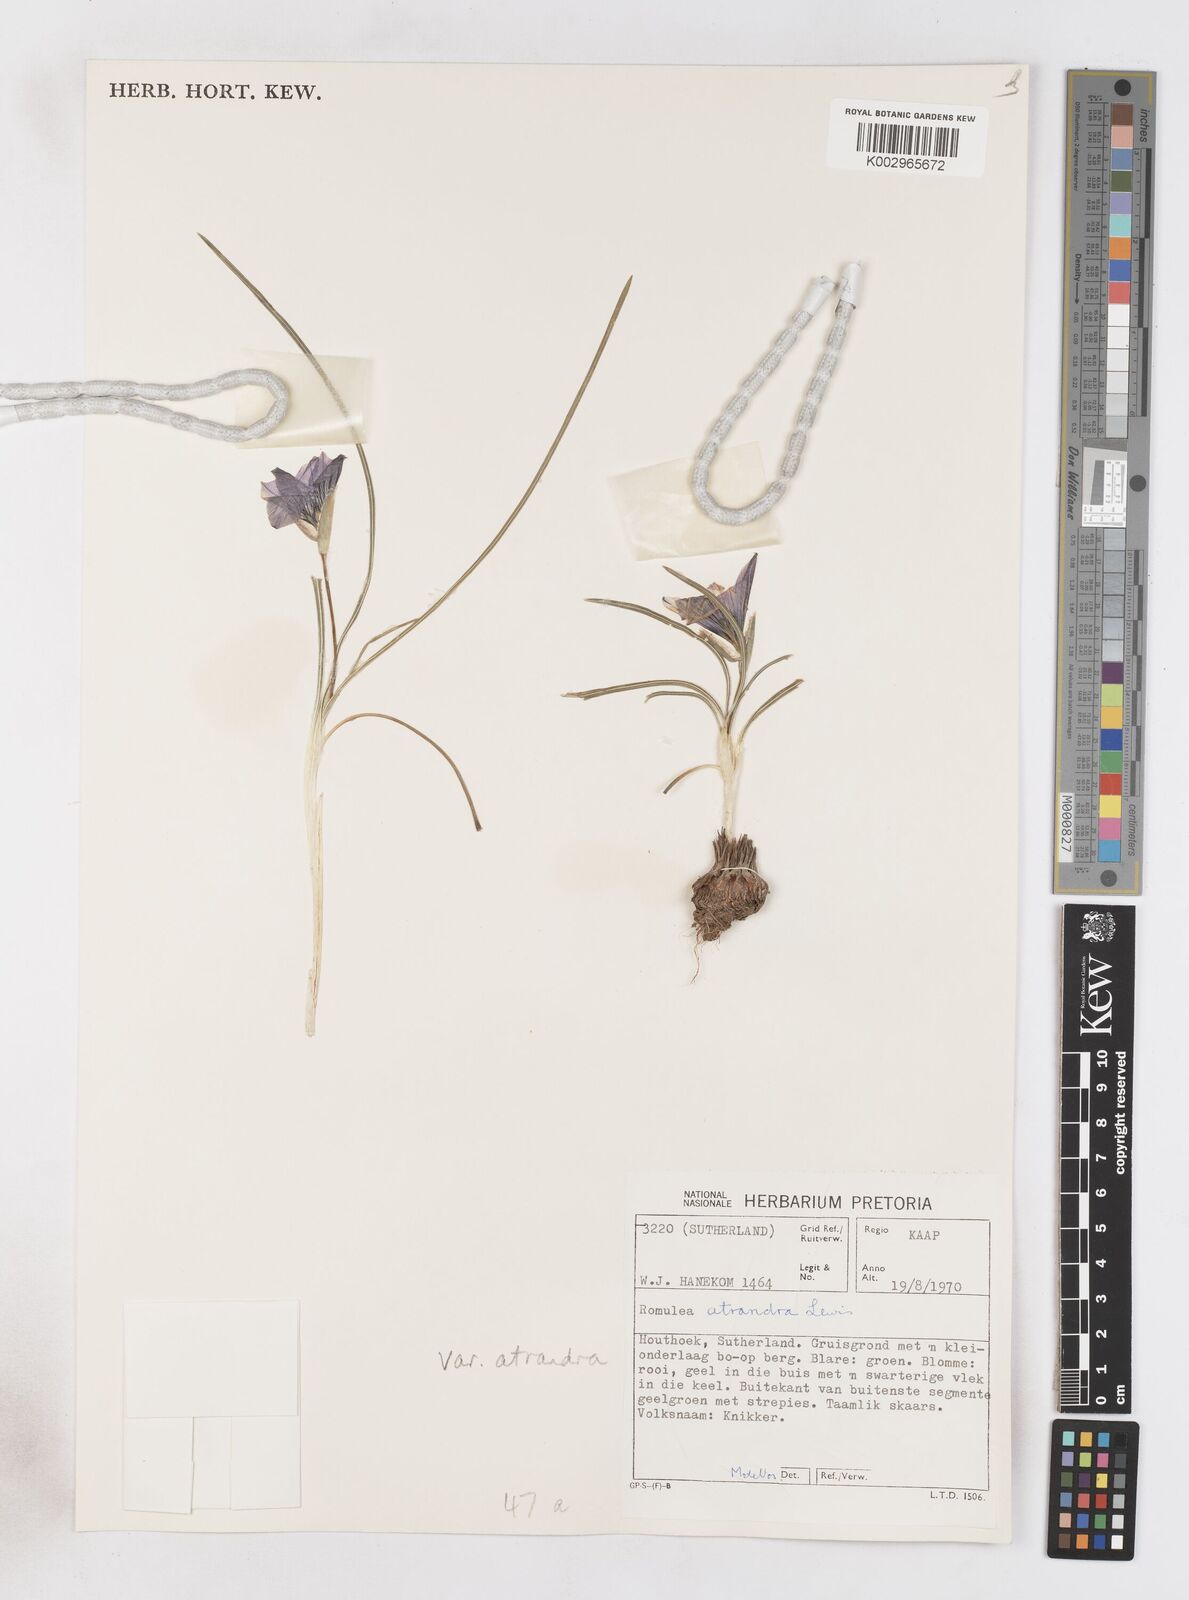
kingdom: Plantae
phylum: Tracheophyta
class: Liliopsida
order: Asparagales
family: Iridaceae
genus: Romulea
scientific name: Romulea atrandra
